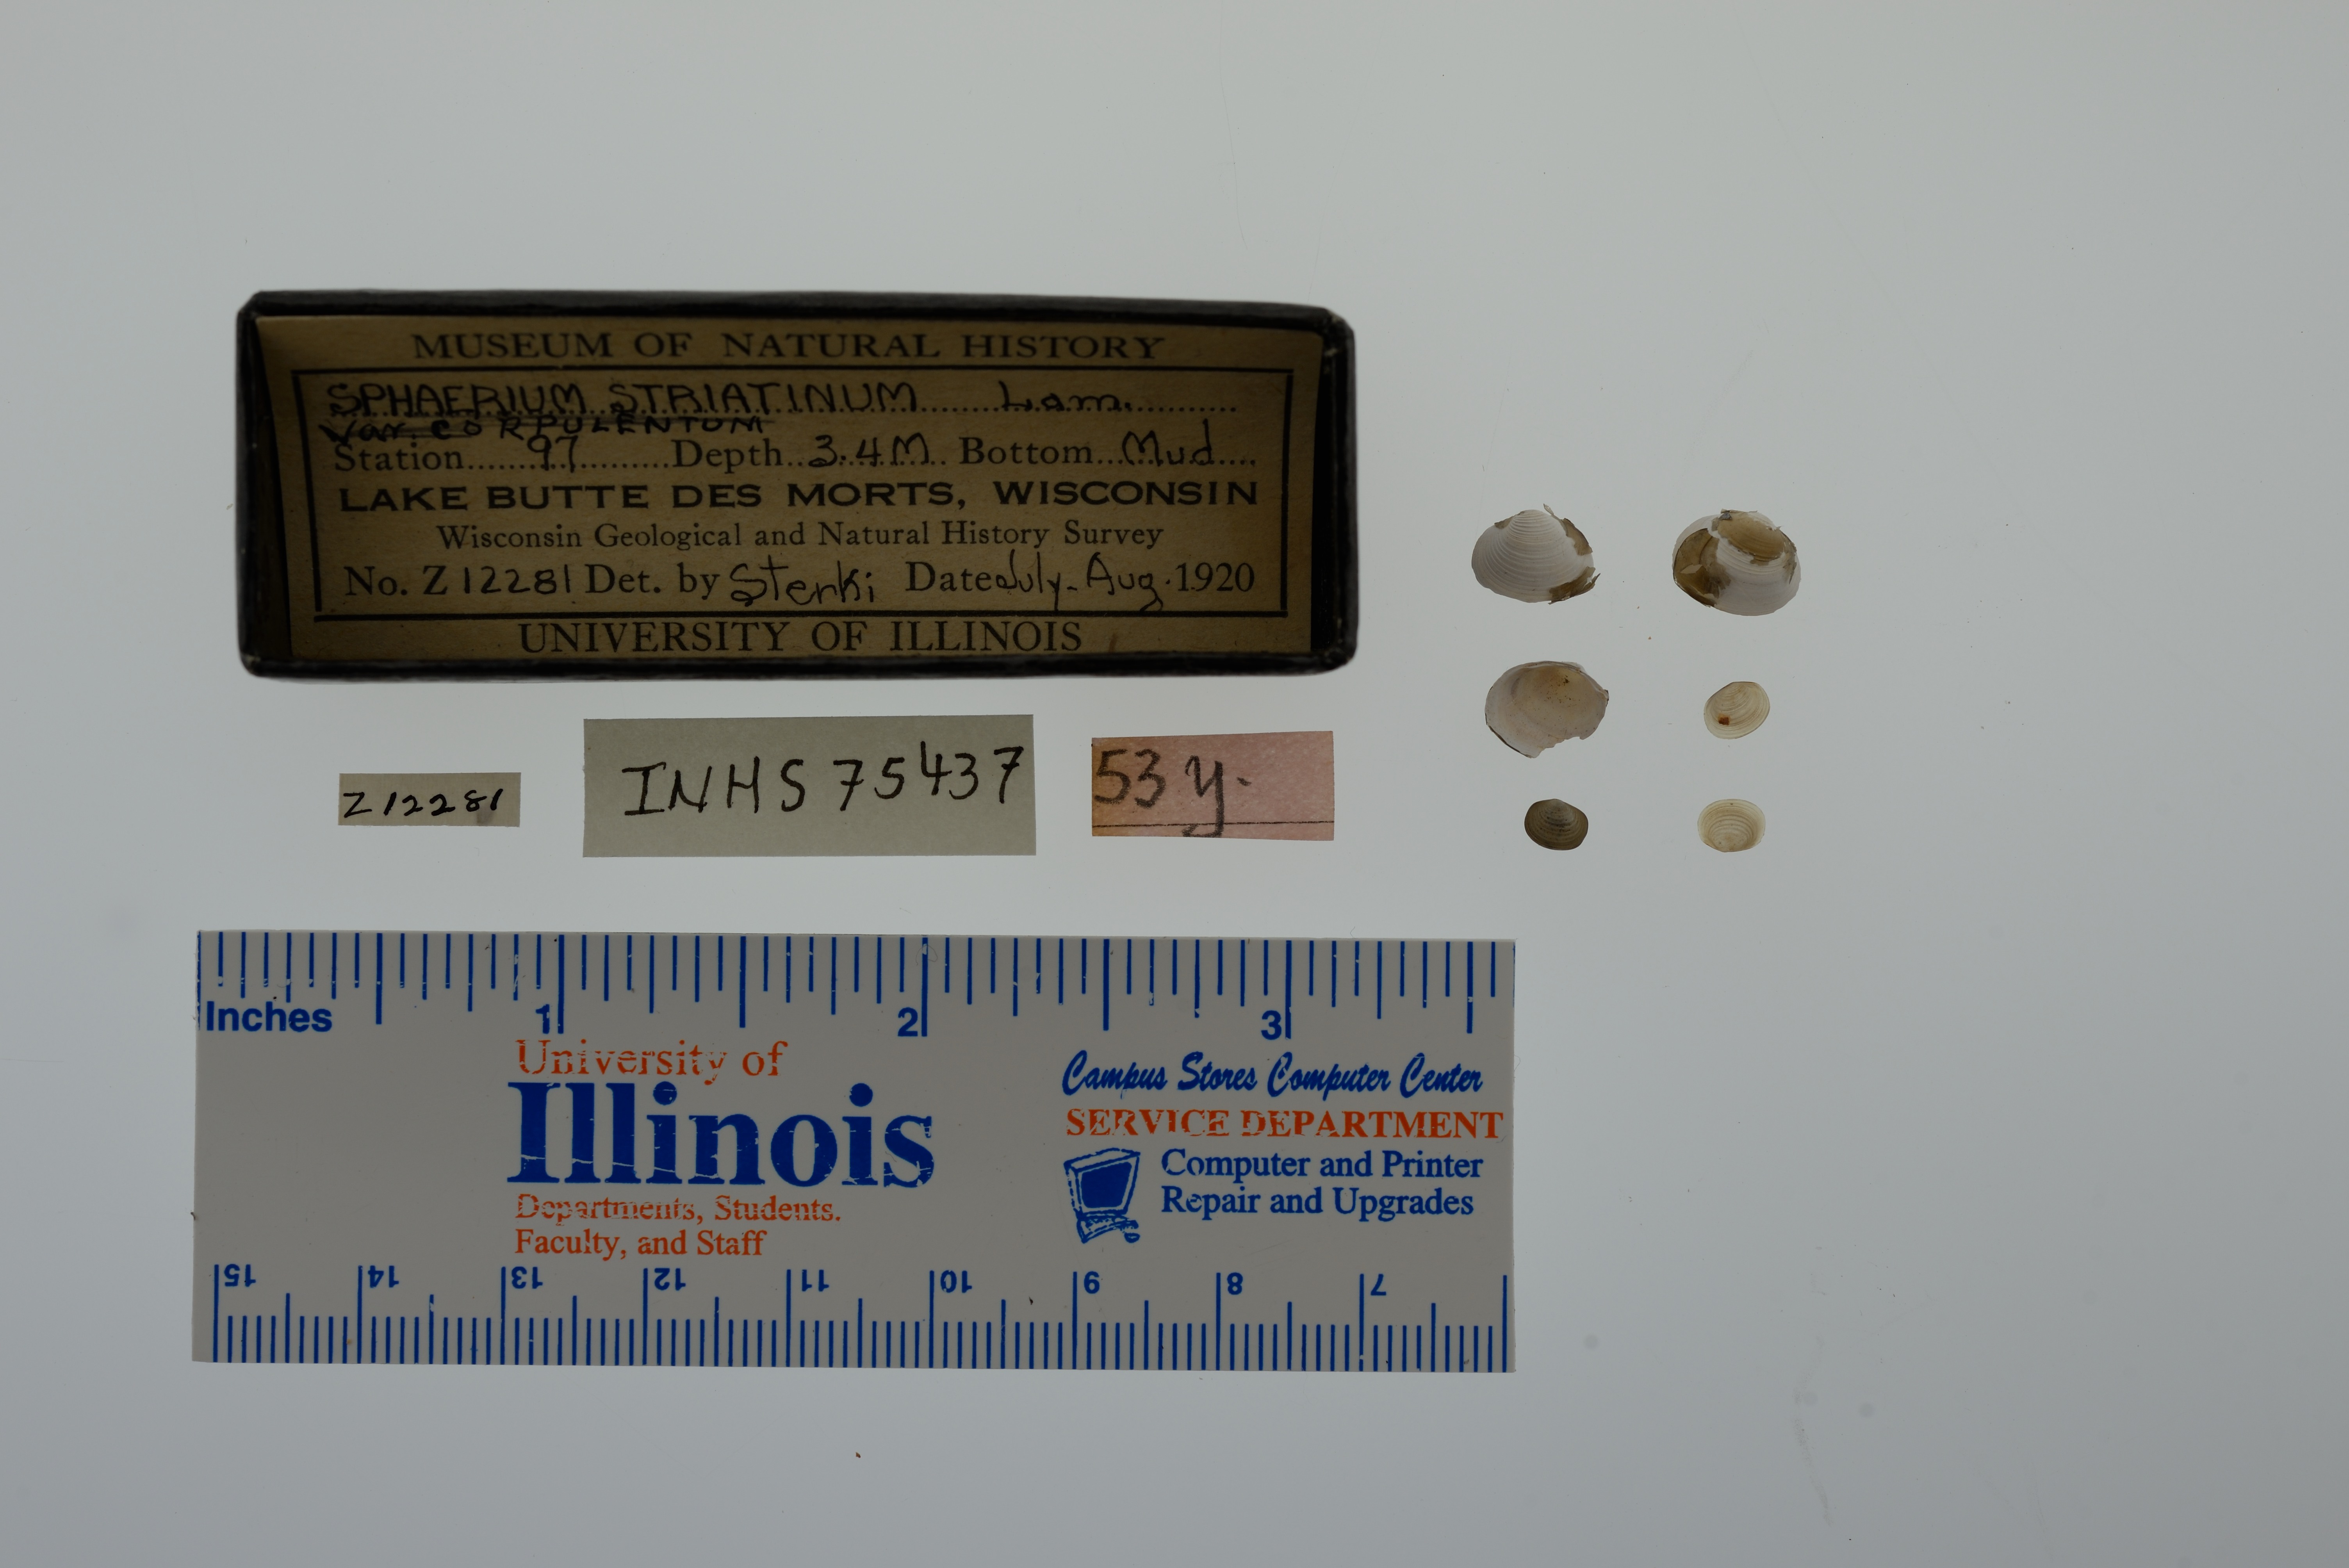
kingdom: Animalia
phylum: Mollusca
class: Bivalvia
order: Sphaeriida
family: Sphaeriidae
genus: Sphaerium
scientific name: Sphaerium striatinum
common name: Striated fingernailclam
